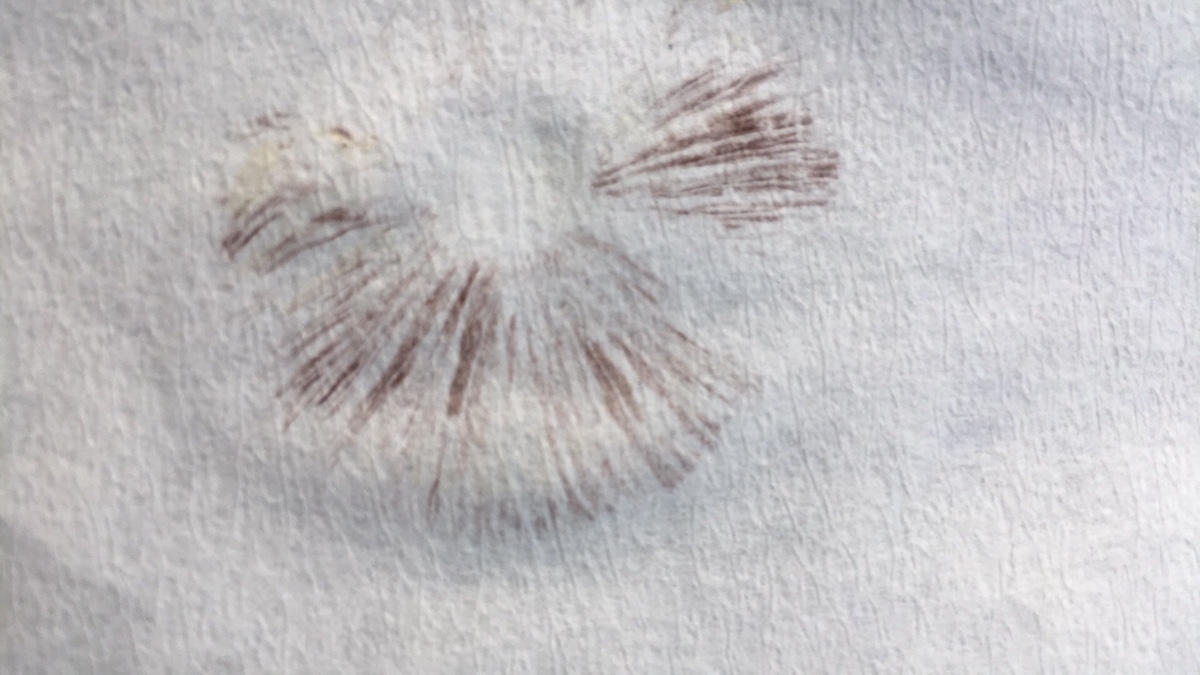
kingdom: Fungi
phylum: Basidiomycota
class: Agaricomycetes
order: Agaricales
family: Hymenogastraceae
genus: Psilocybe
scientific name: Psilocybe coronilla
